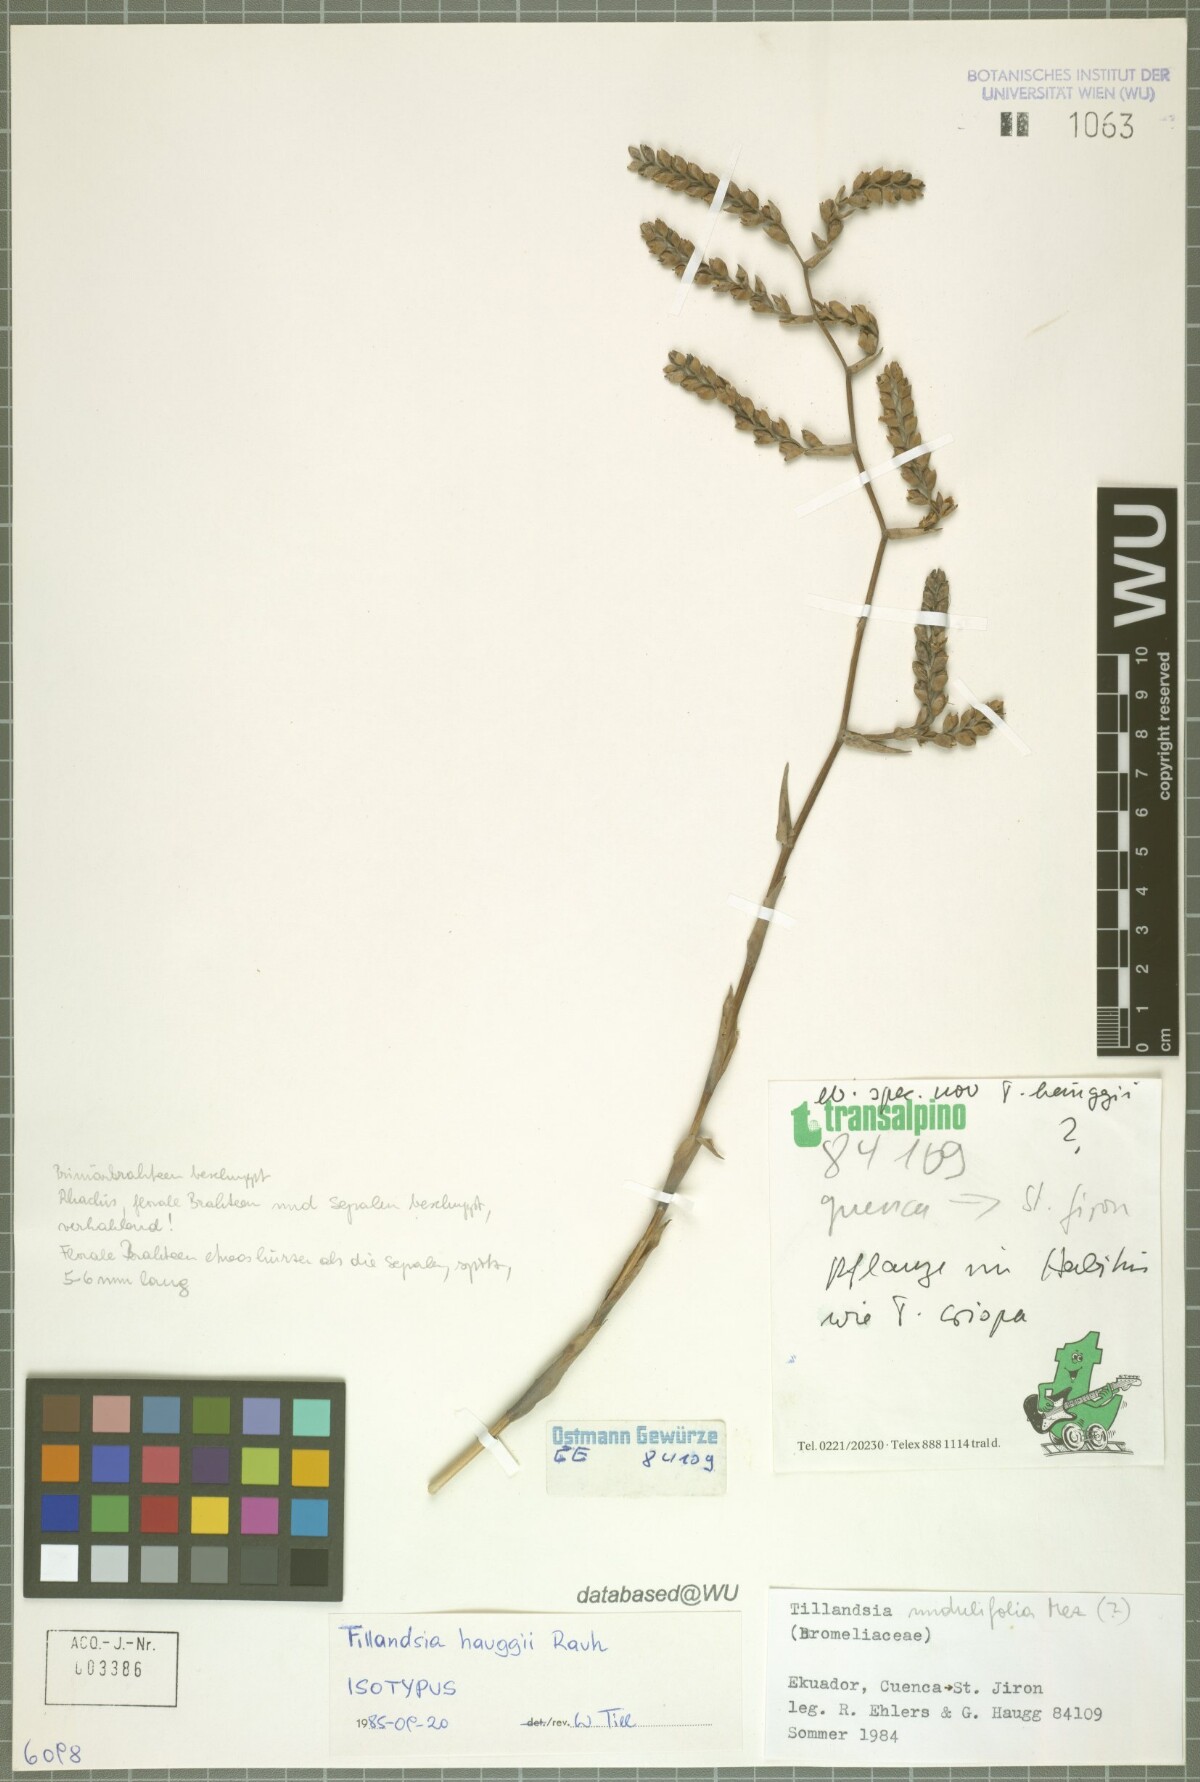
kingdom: Plantae
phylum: Tracheophyta
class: Liliopsida
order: Poales
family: Bromeliaceae
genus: Racinaea
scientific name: Racinaea hauggiae
